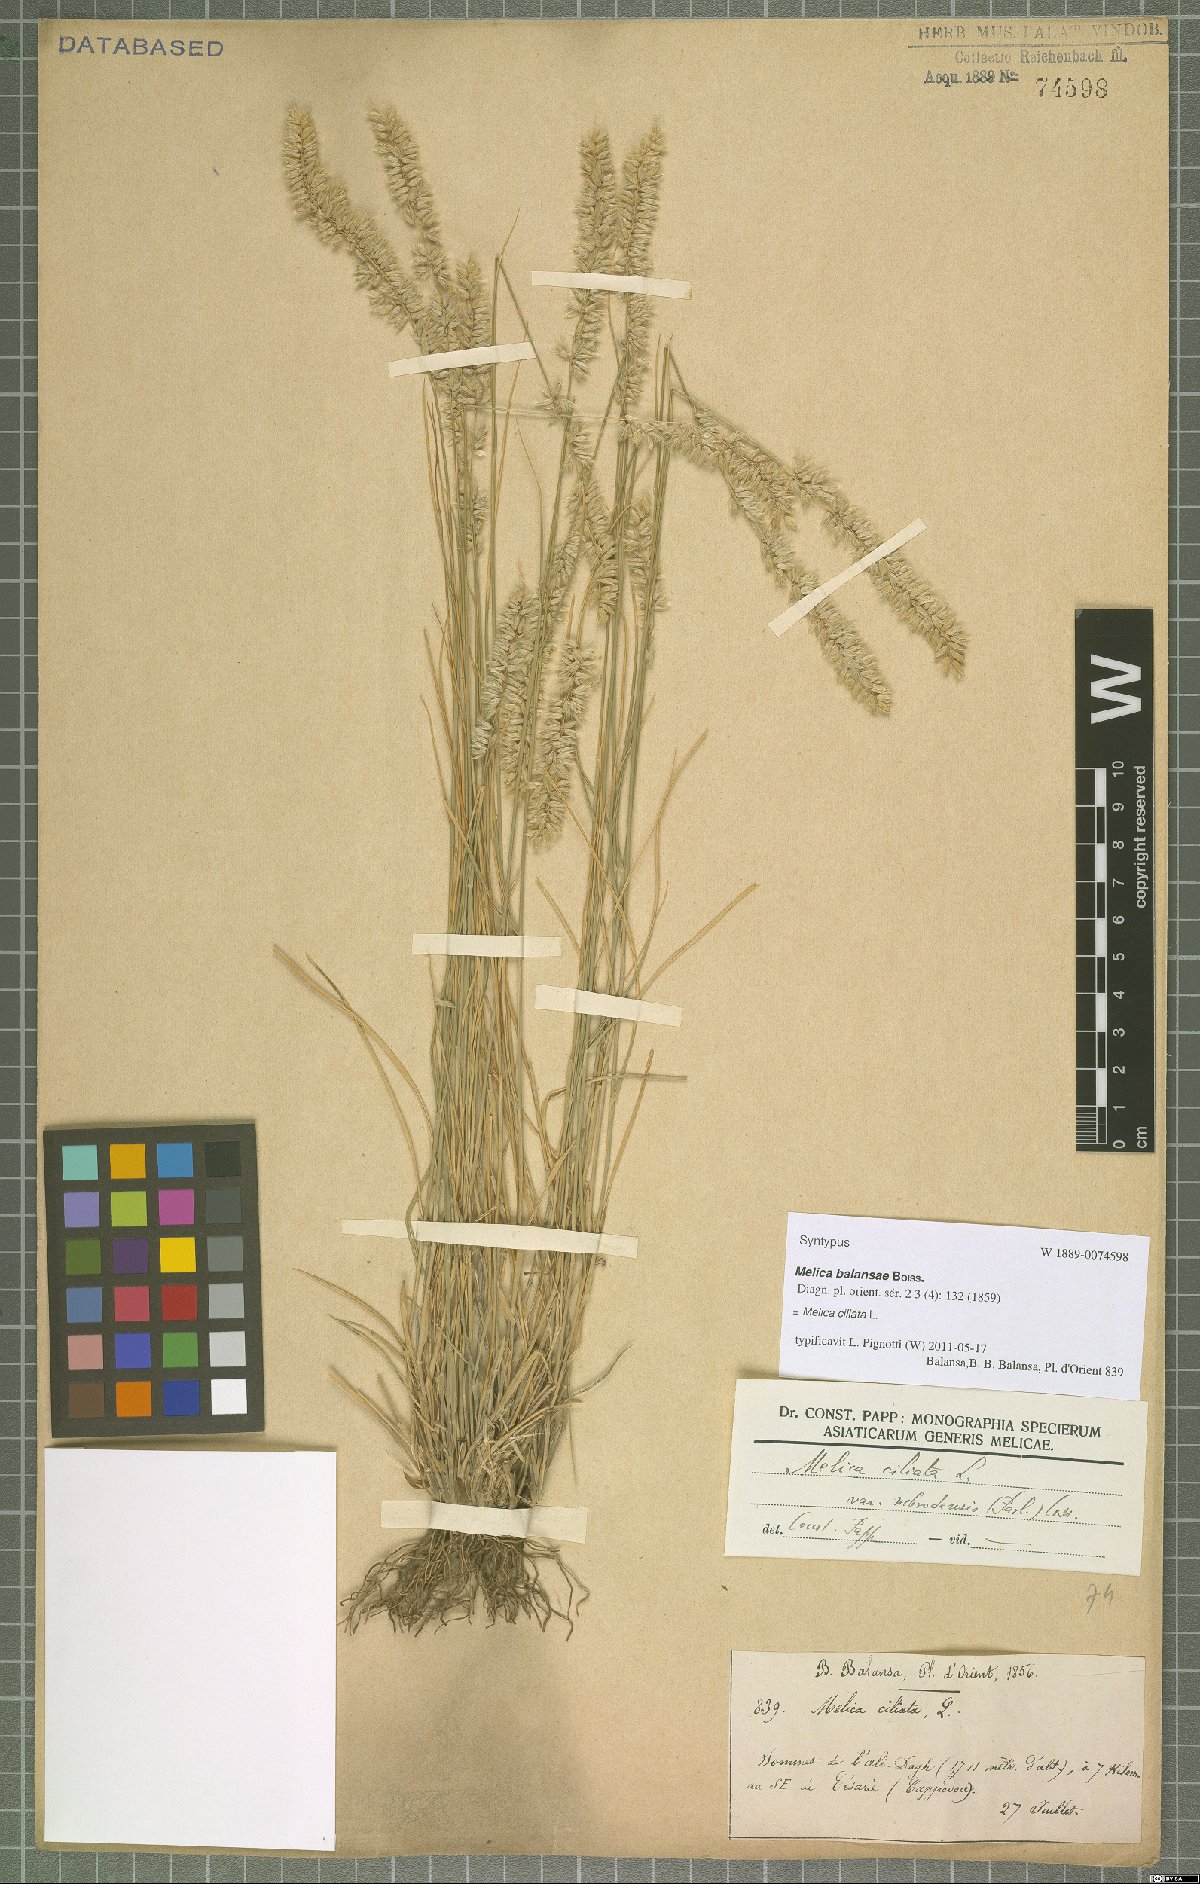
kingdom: Plantae
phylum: Tracheophyta
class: Liliopsida
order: Poales
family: Poaceae
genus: Melica
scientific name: Melica ciliata
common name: Hairy melicgrass
